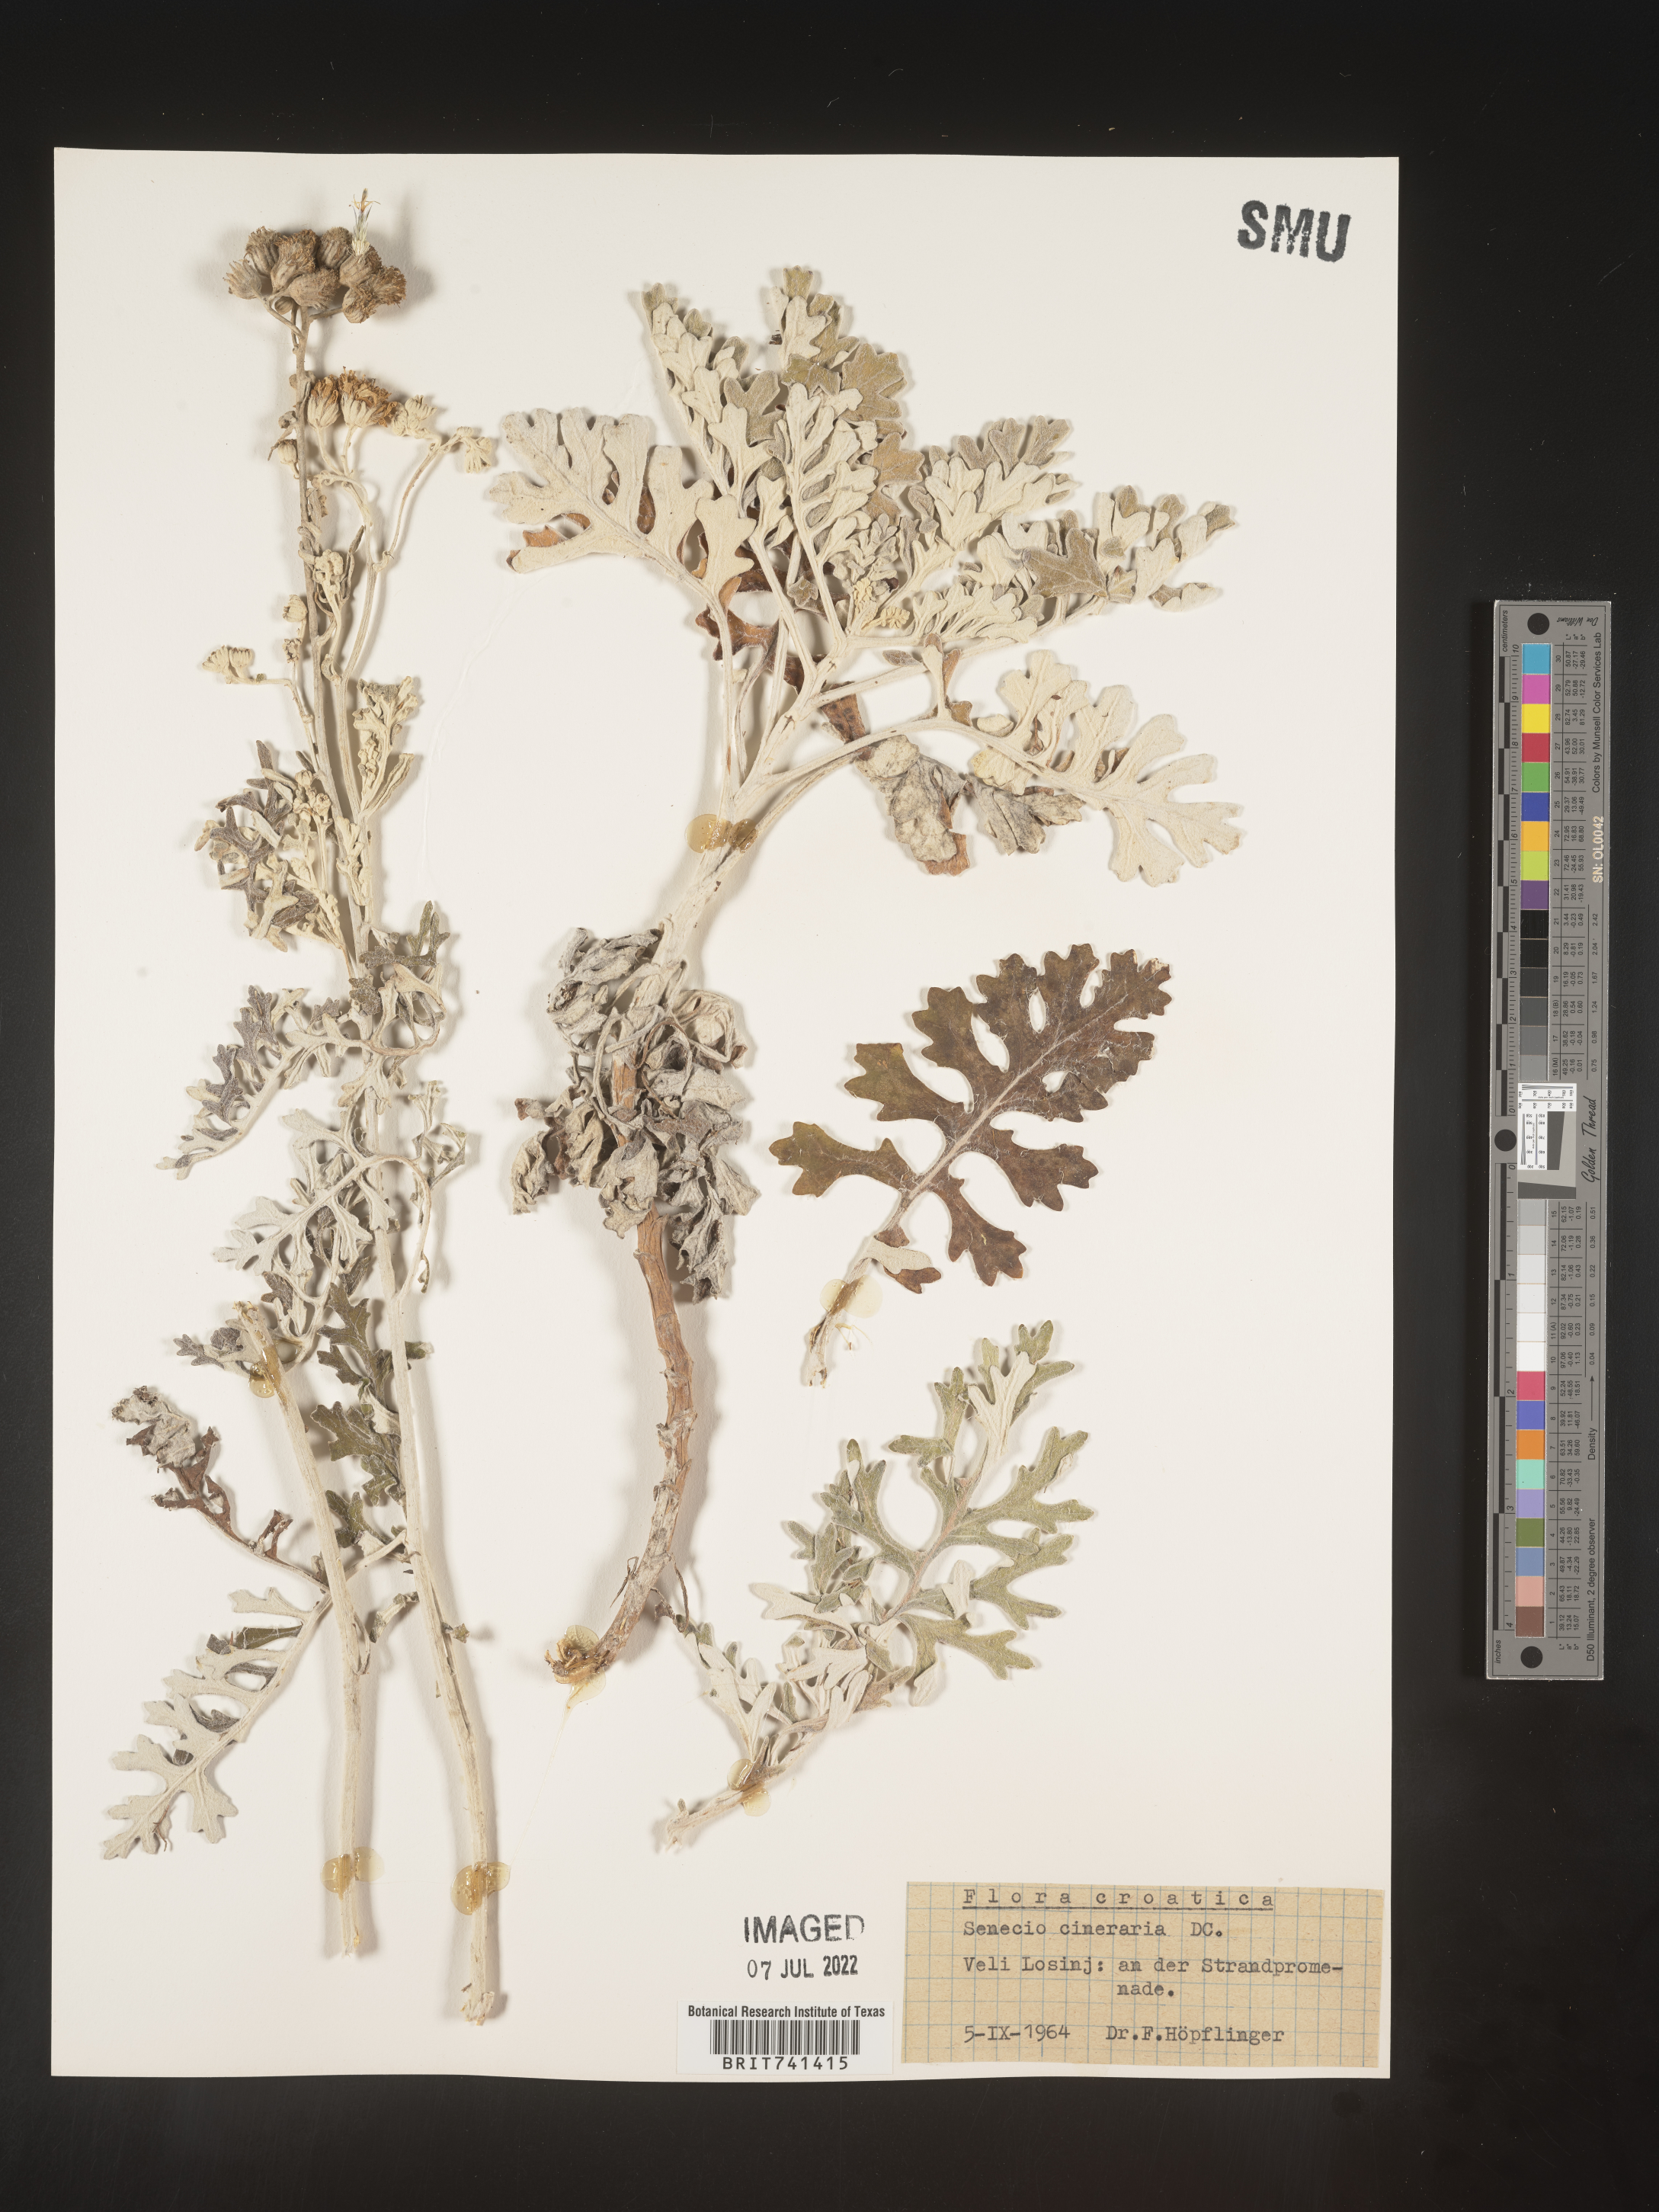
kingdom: Plantae
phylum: Tracheophyta
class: Magnoliopsida
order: Asterales
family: Asteraceae
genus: Senecio
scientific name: Senecio
